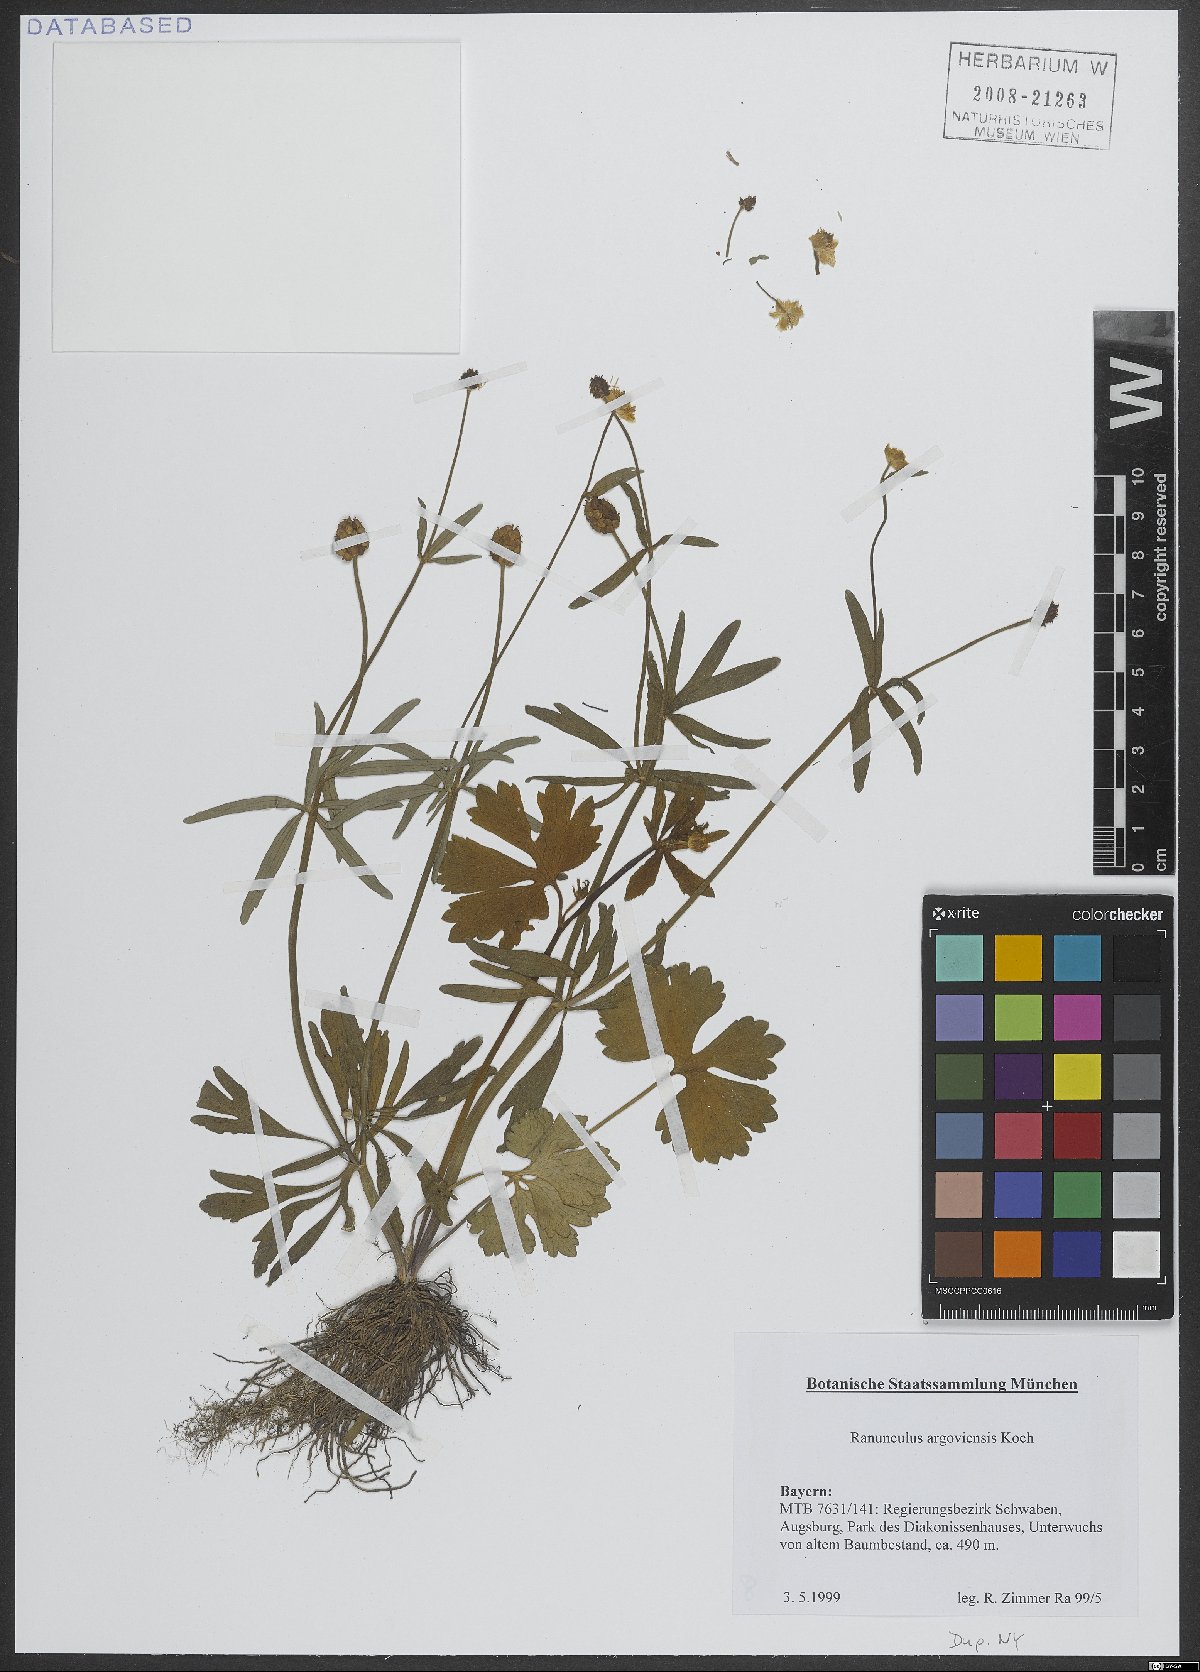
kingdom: Plantae
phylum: Tracheophyta
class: Magnoliopsida
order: Ranunculales
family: Ranunculaceae
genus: Ranunculus
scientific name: Ranunculus argoviensis
